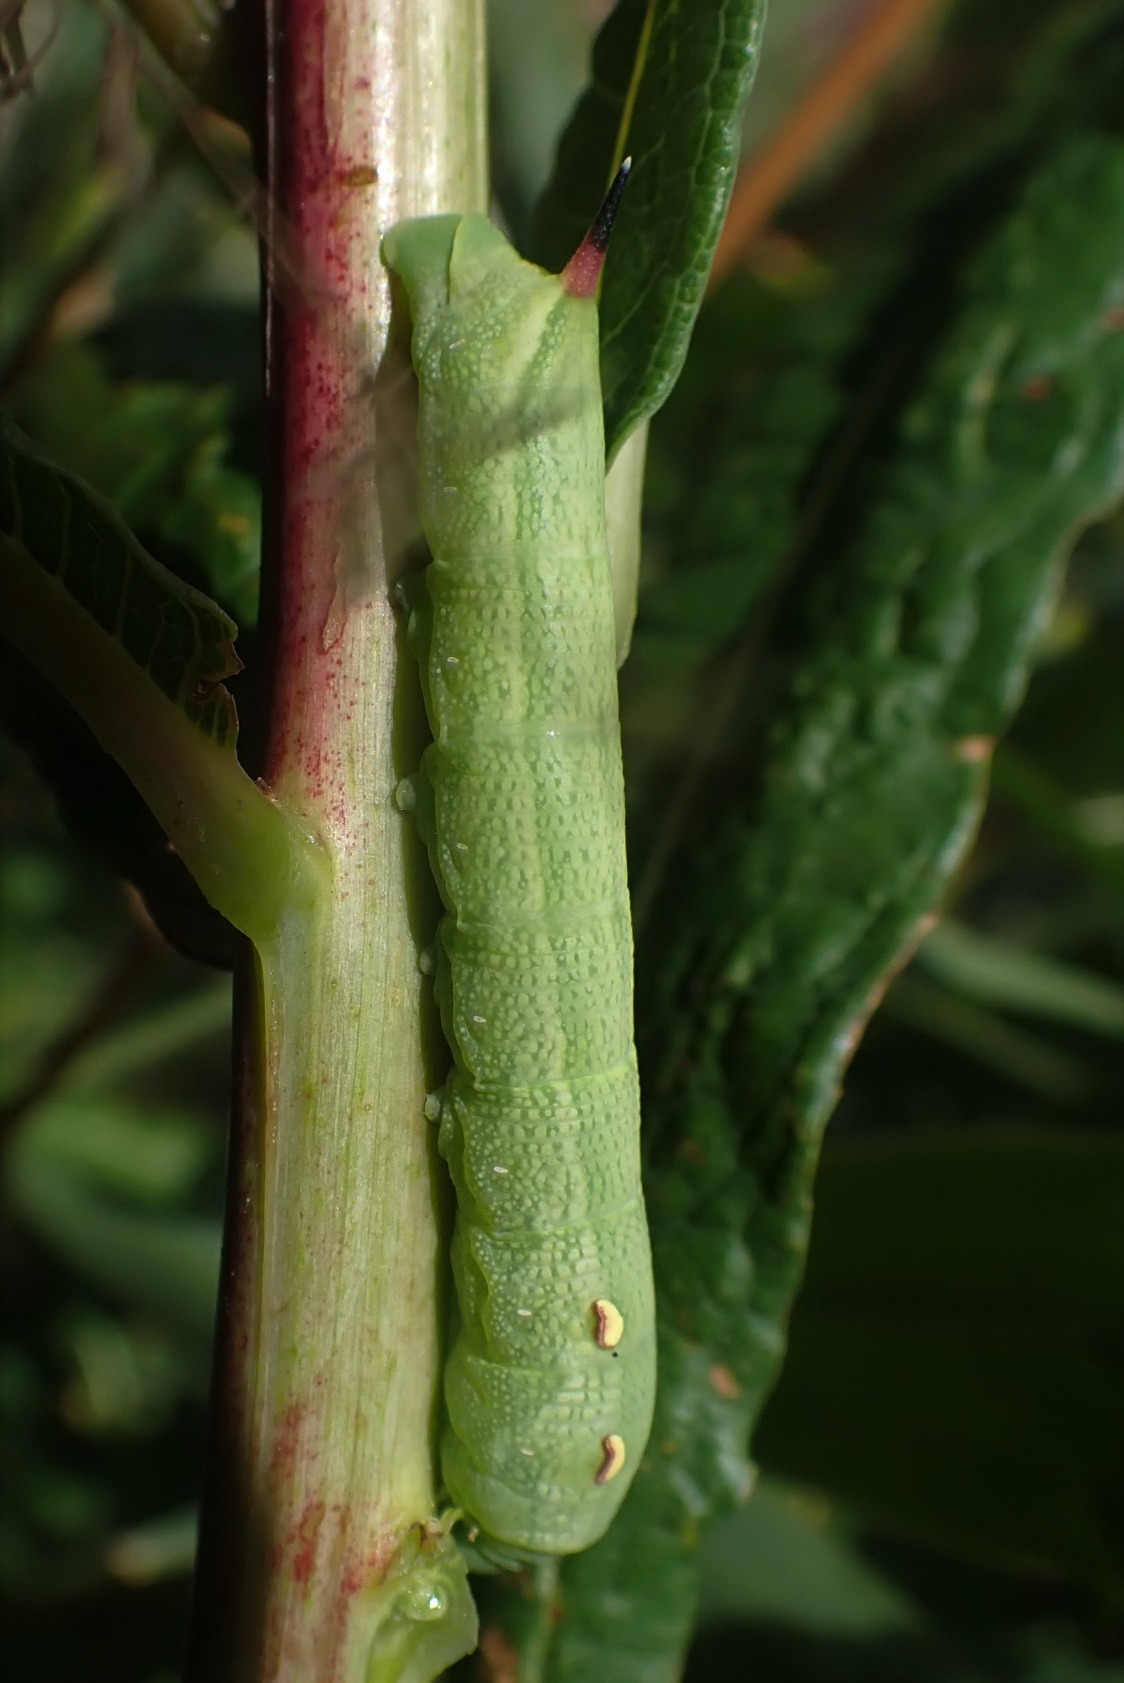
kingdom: Animalia
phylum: Arthropoda
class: Insecta
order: Lepidoptera
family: Sphingidae
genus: Deilephila
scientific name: Deilephila elpenor
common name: Dueurtsværmer
